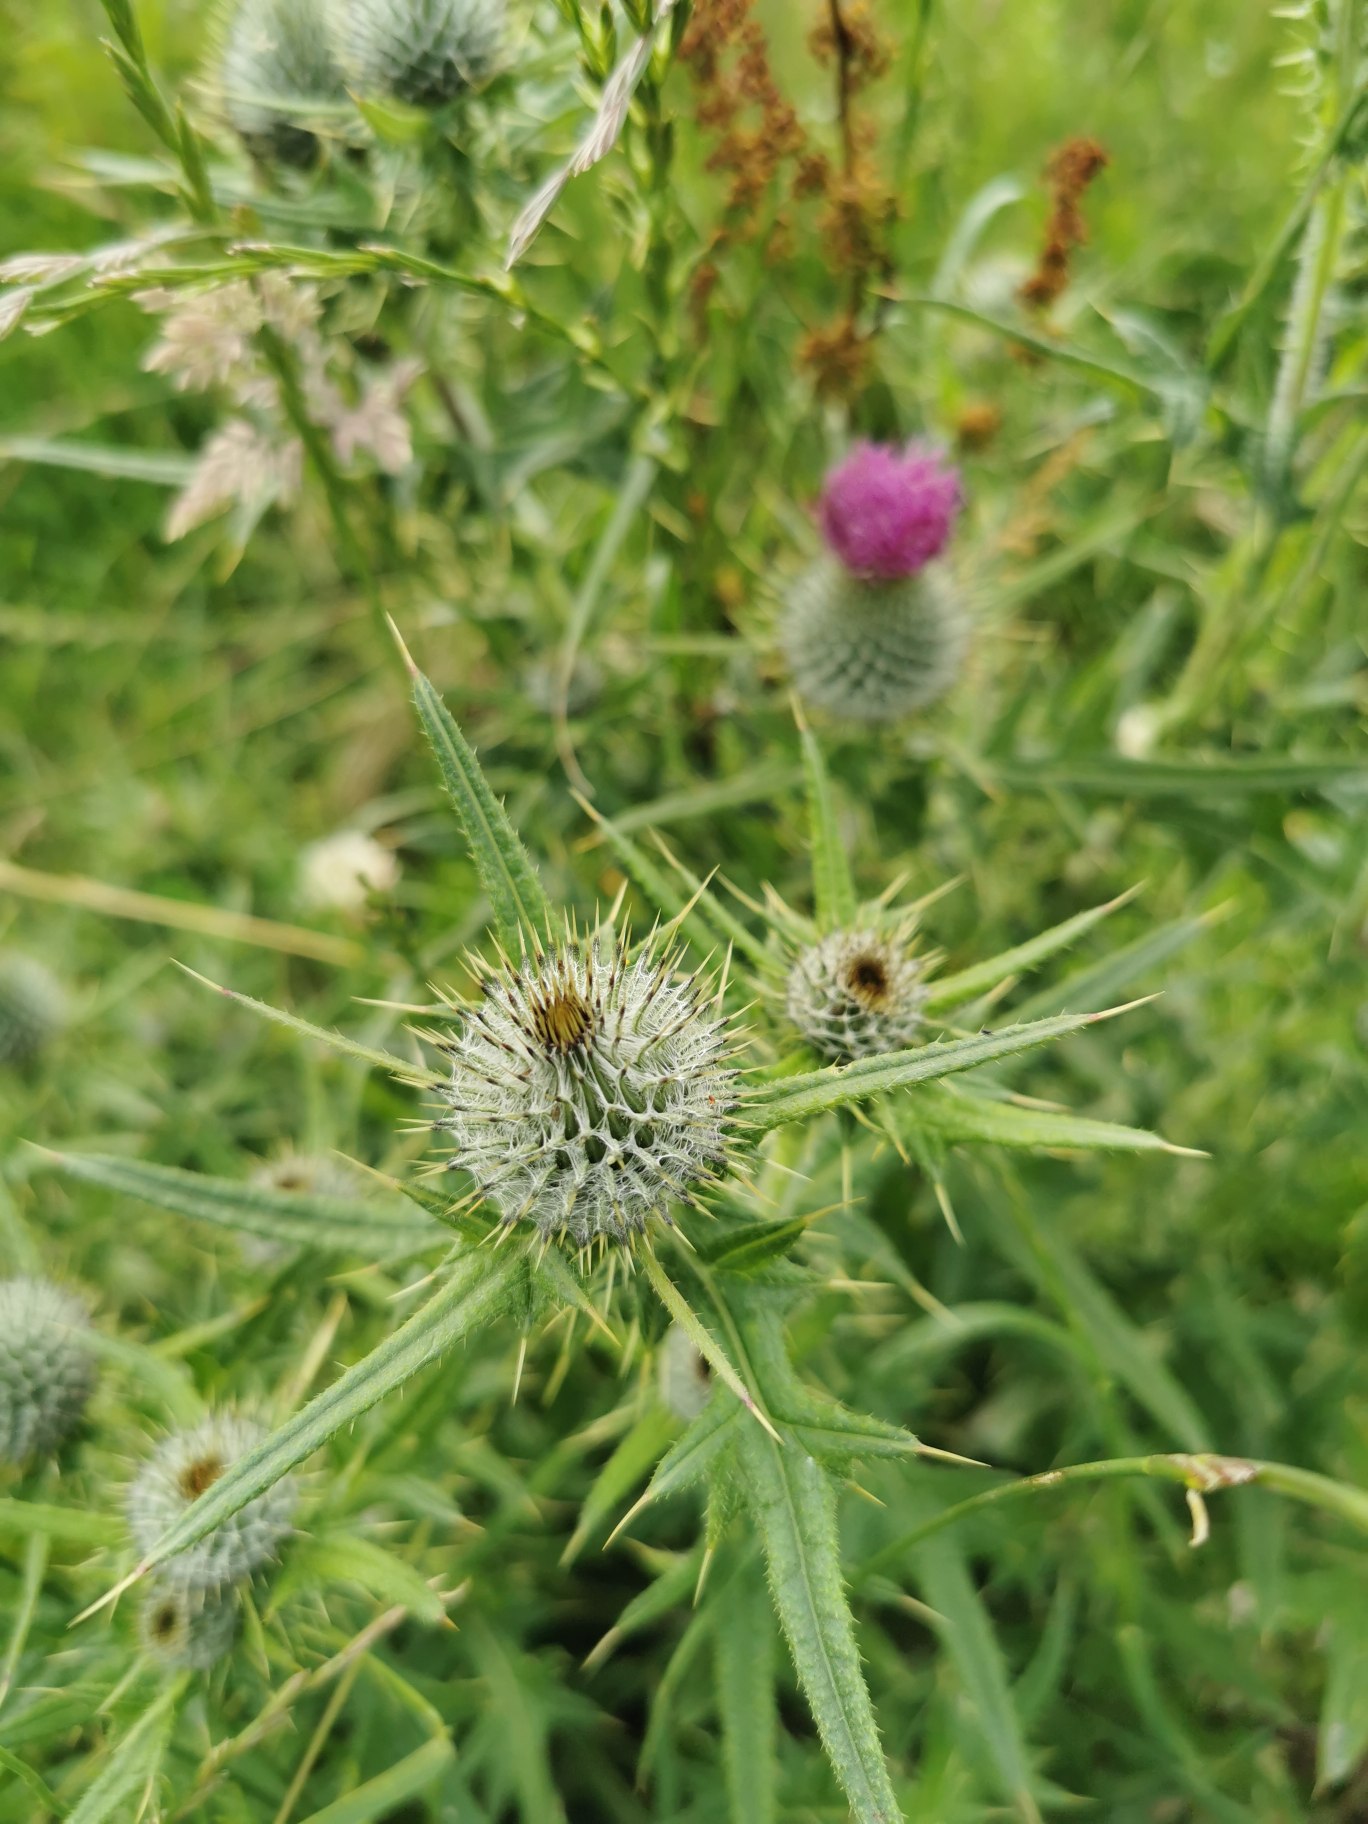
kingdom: Plantae
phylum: Tracheophyta
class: Magnoliopsida
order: Asterales
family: Asteraceae
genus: Cirsium
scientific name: Cirsium vulgare
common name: Horse-tidsel
